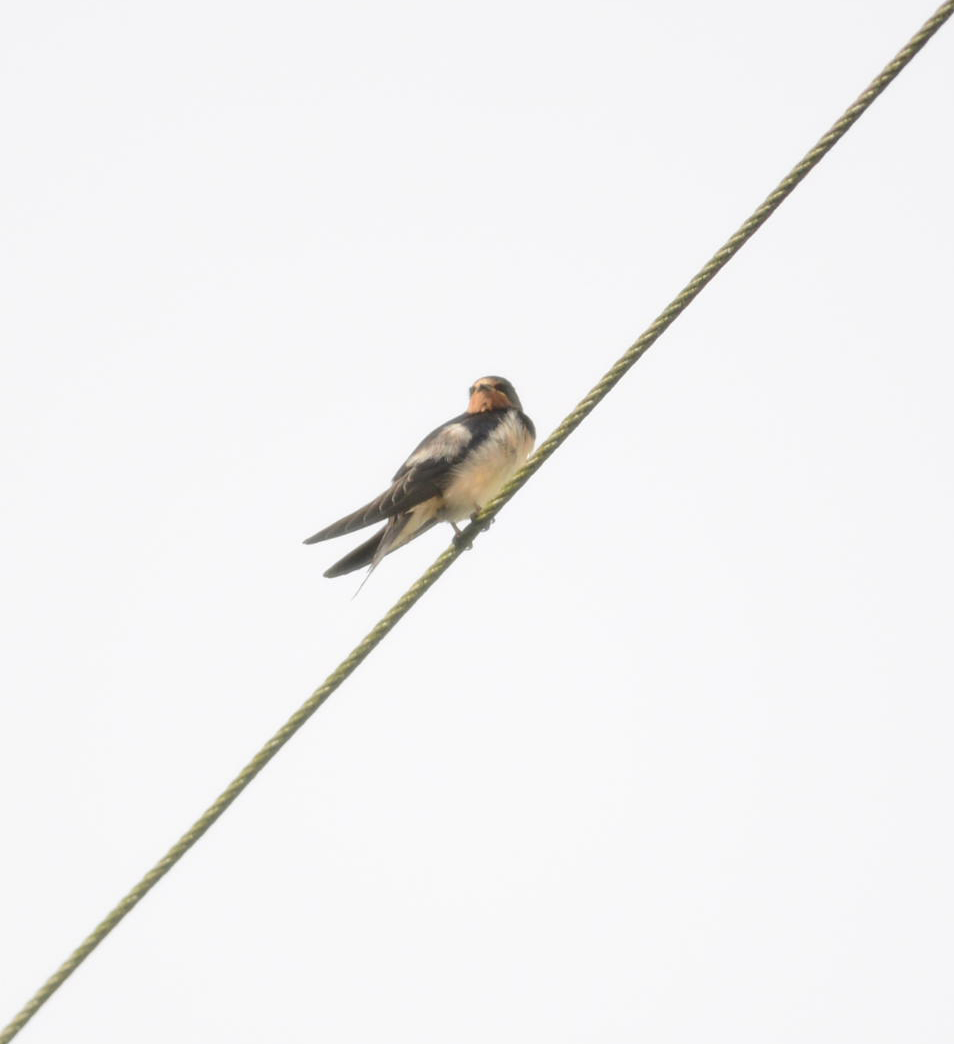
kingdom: Animalia
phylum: Chordata
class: Aves
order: Passeriformes
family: Hirundinidae
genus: Hirundo
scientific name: Hirundo rustica
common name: Barn swallow
